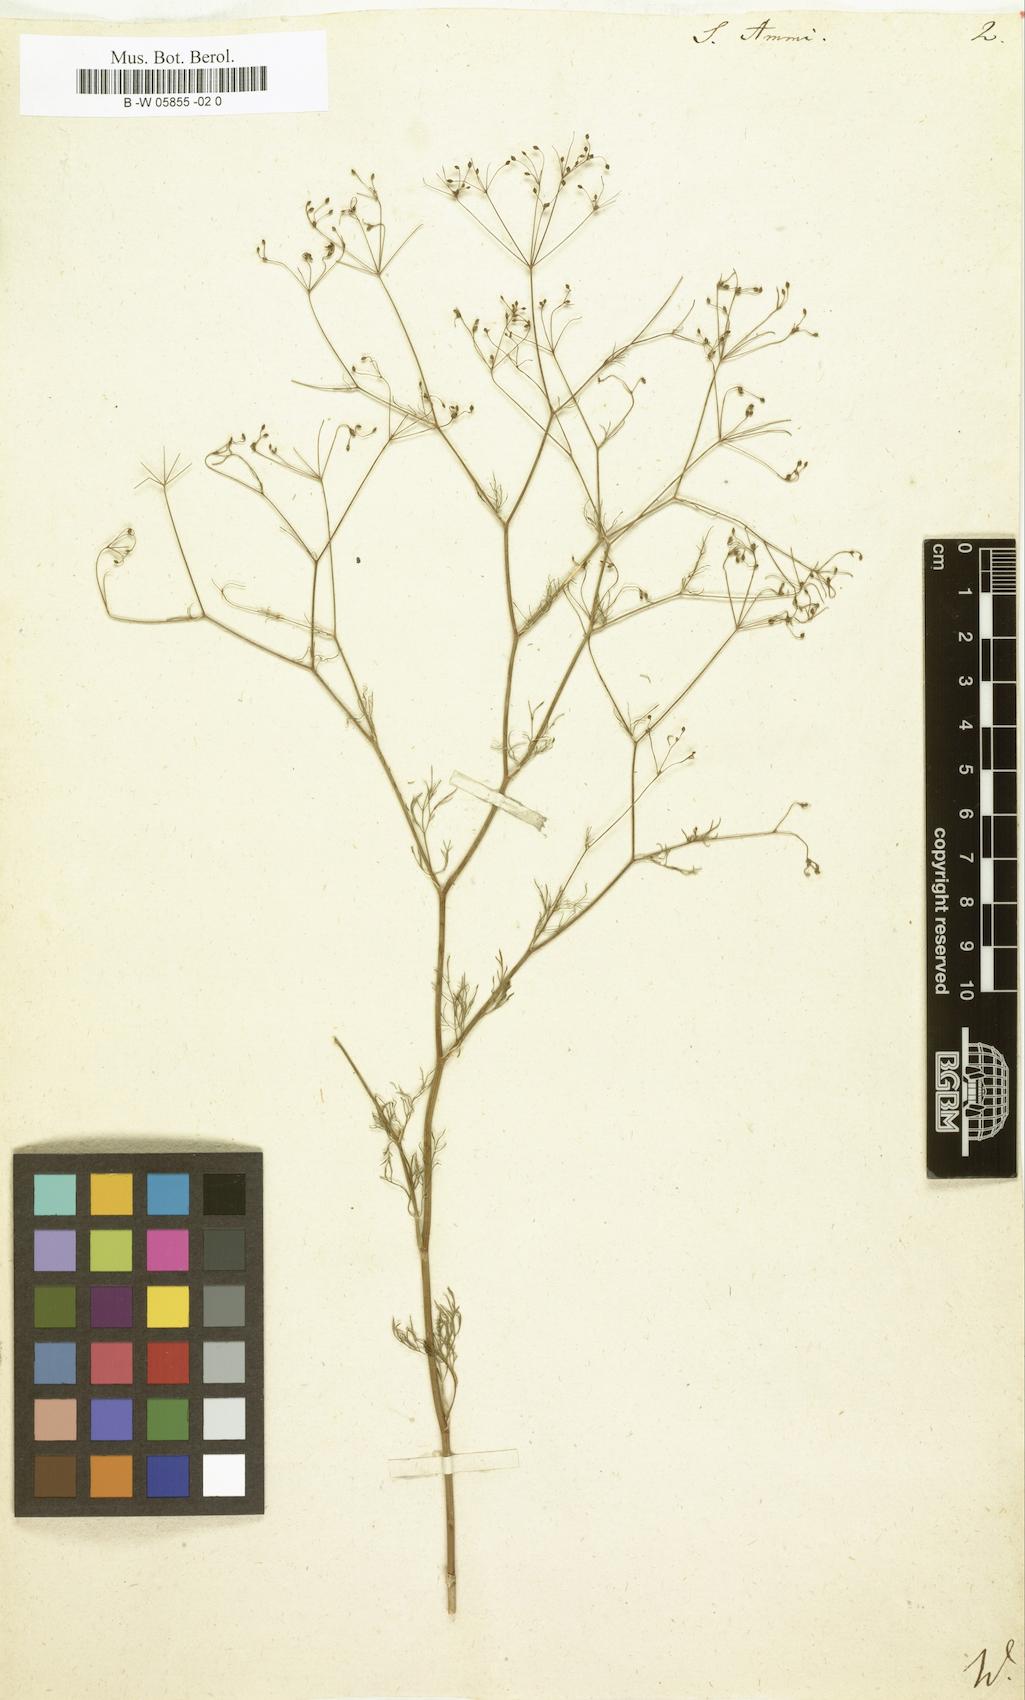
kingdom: Plantae
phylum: Tracheophyta
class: Magnoliopsida
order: Apiales
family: Apiaceae
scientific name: Apiaceae
